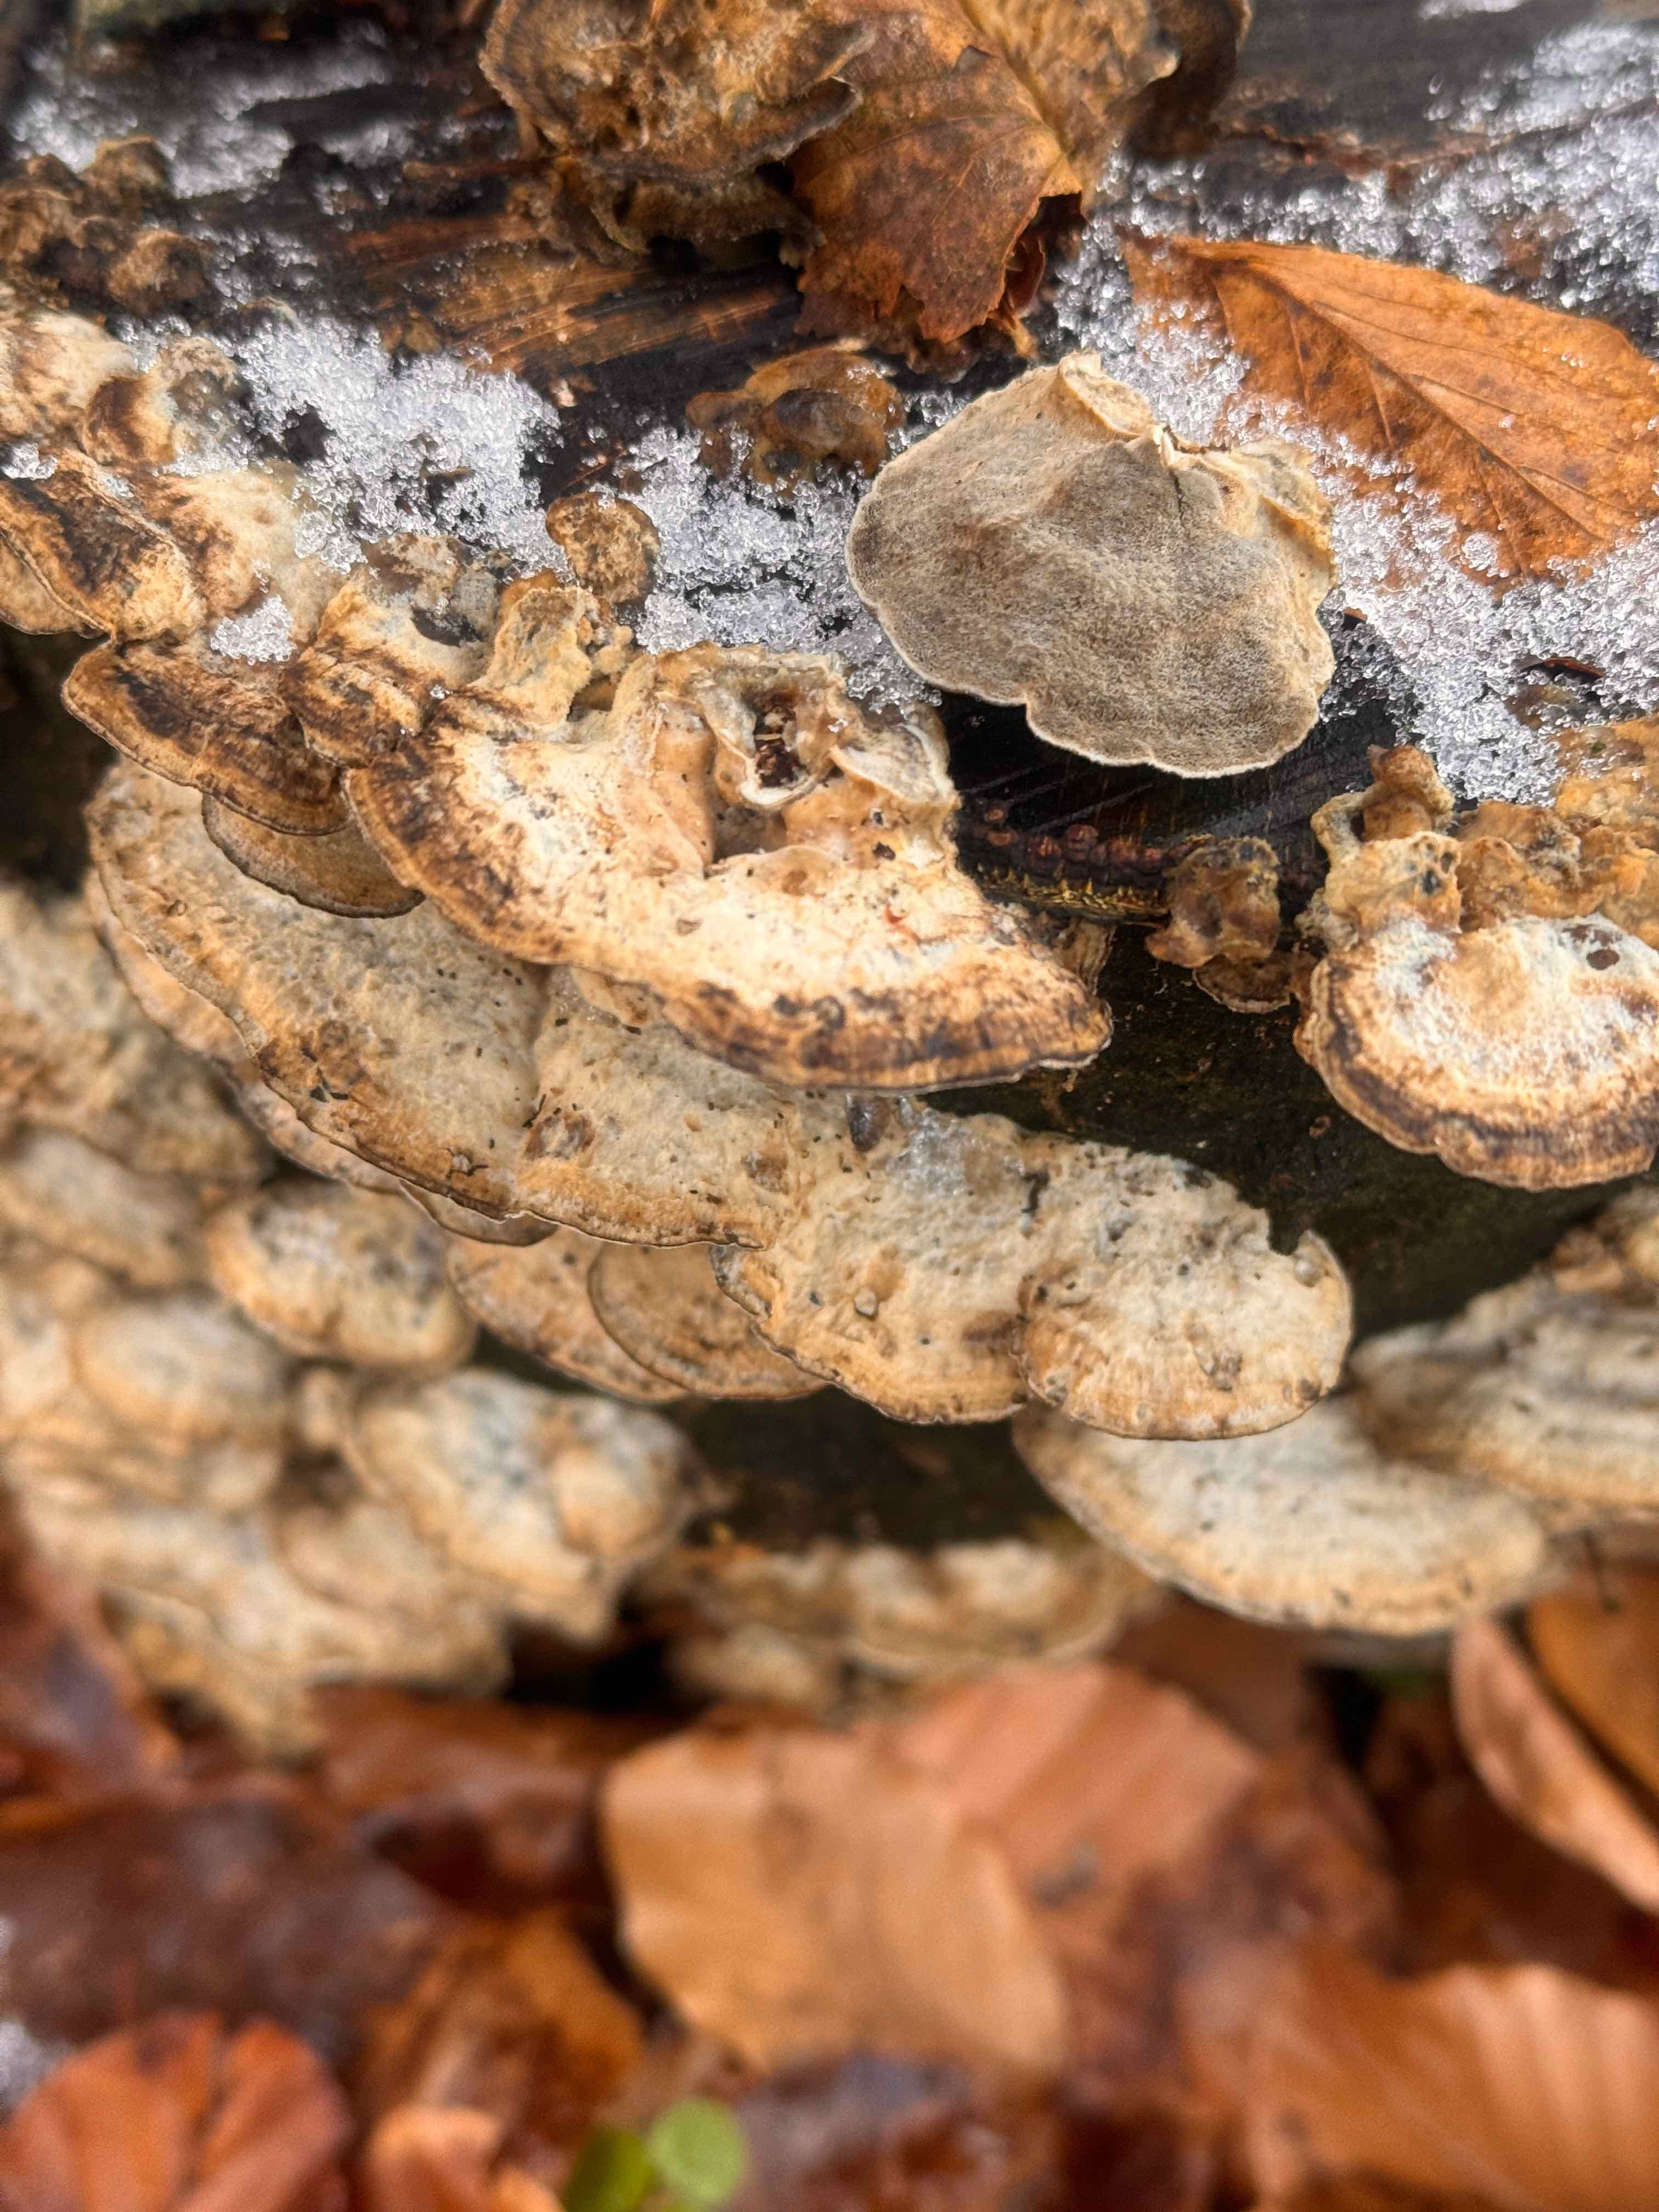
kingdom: Fungi
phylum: Basidiomycota
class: Agaricomycetes
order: Polyporales
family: Phanerochaetaceae
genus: Bjerkandera
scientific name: Bjerkandera adusta
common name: sveden sodporesvamp
